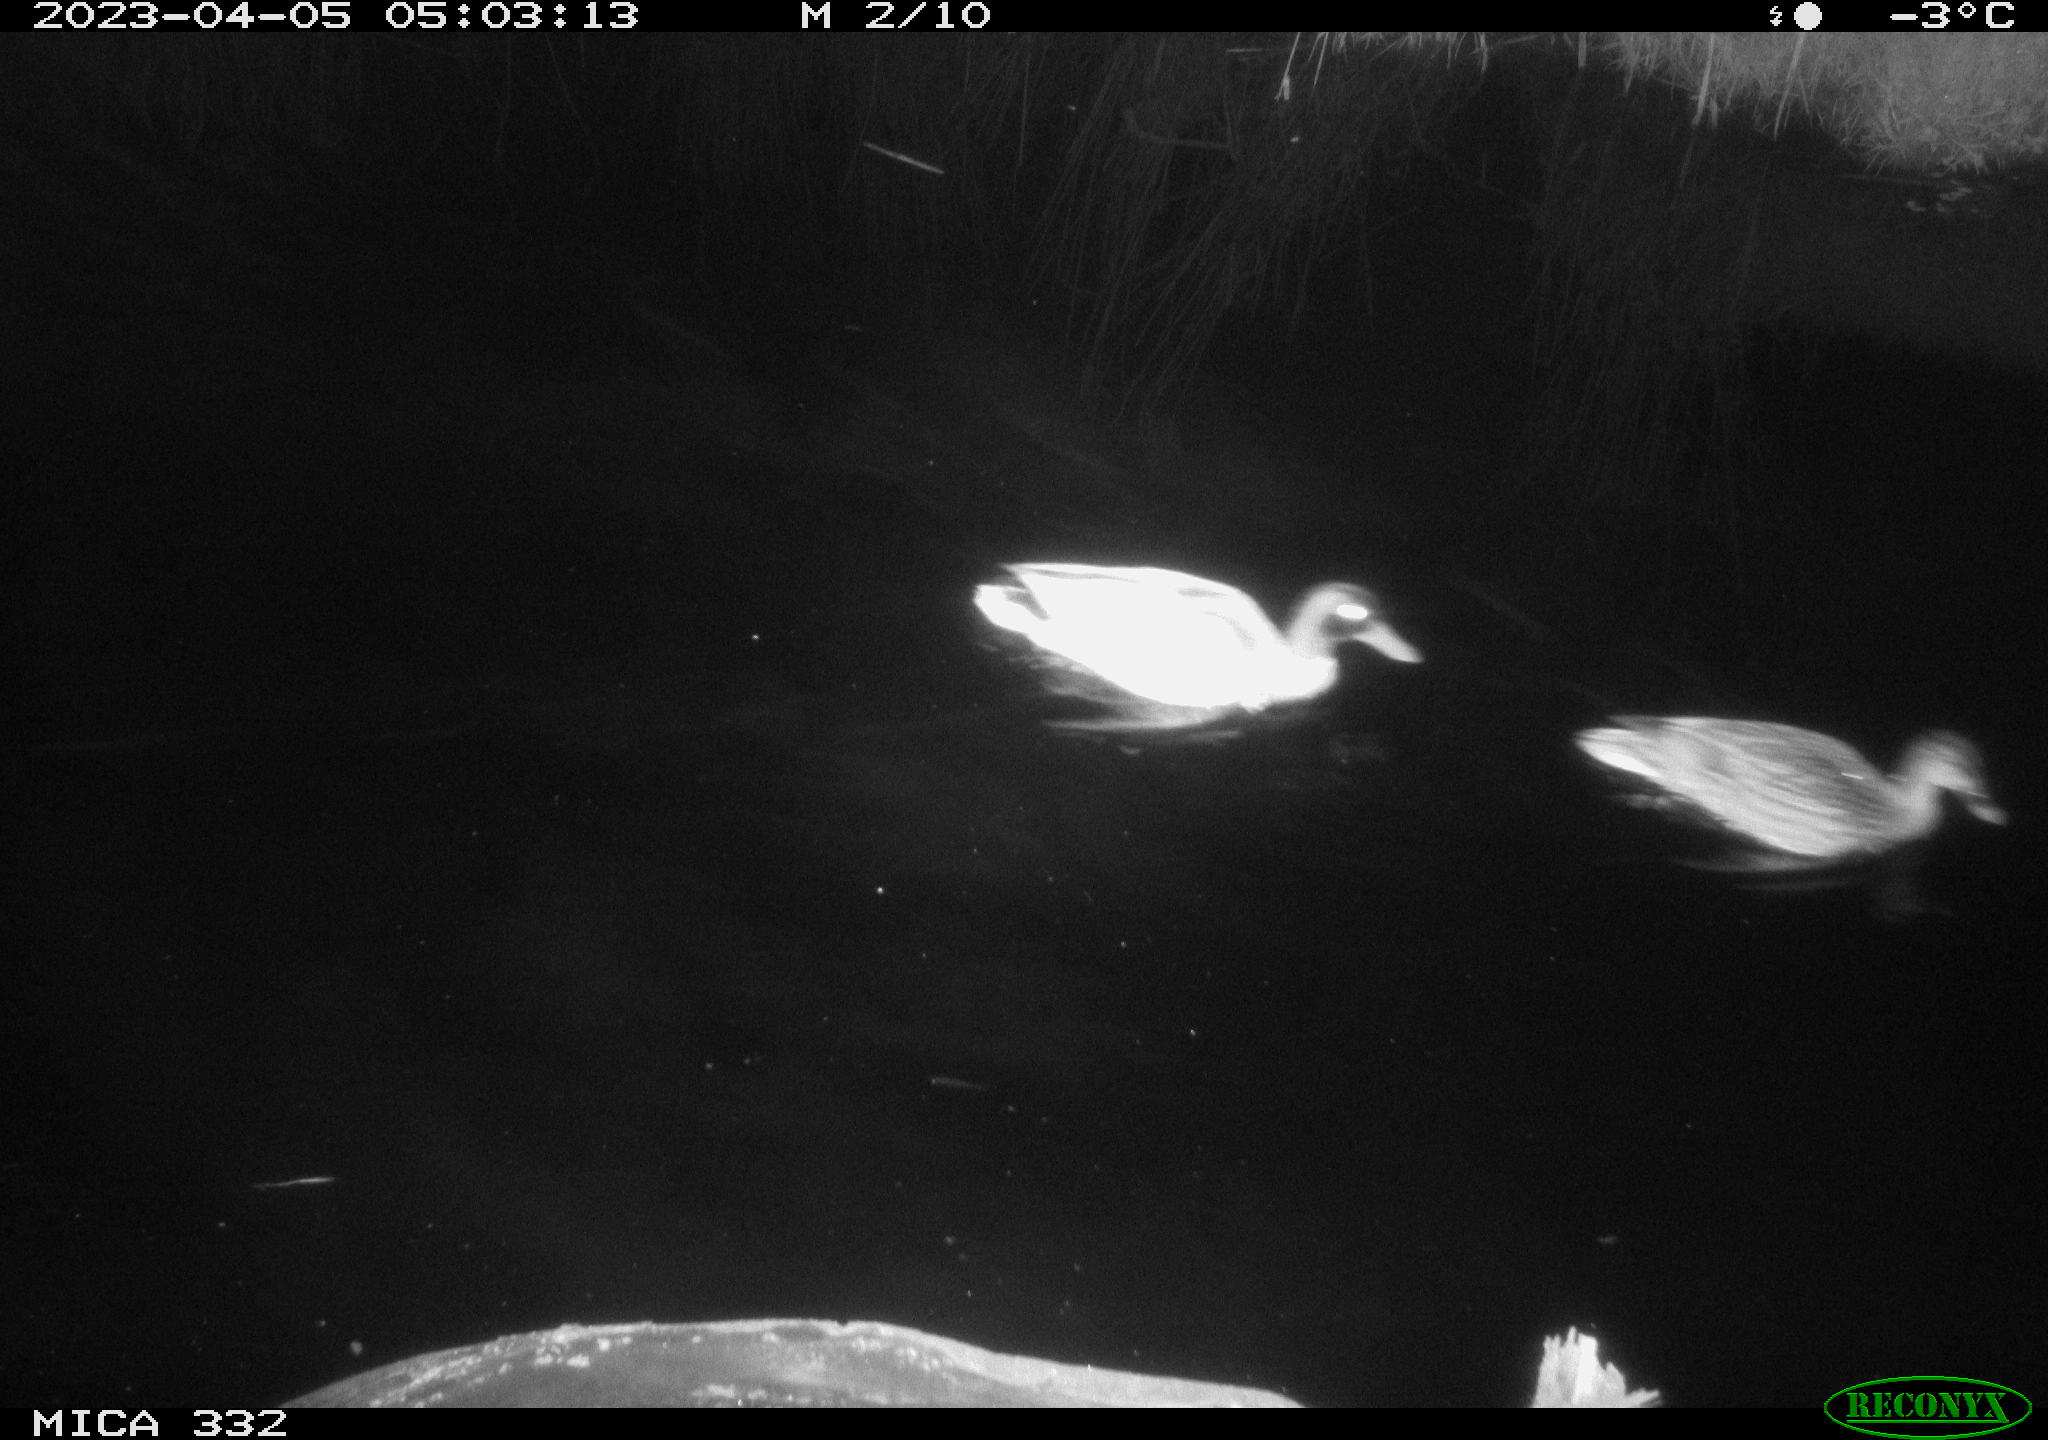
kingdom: Animalia
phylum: Chordata
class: Aves
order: Anseriformes
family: Anatidae
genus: Anas
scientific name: Anas platyrhynchos
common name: Mallard
